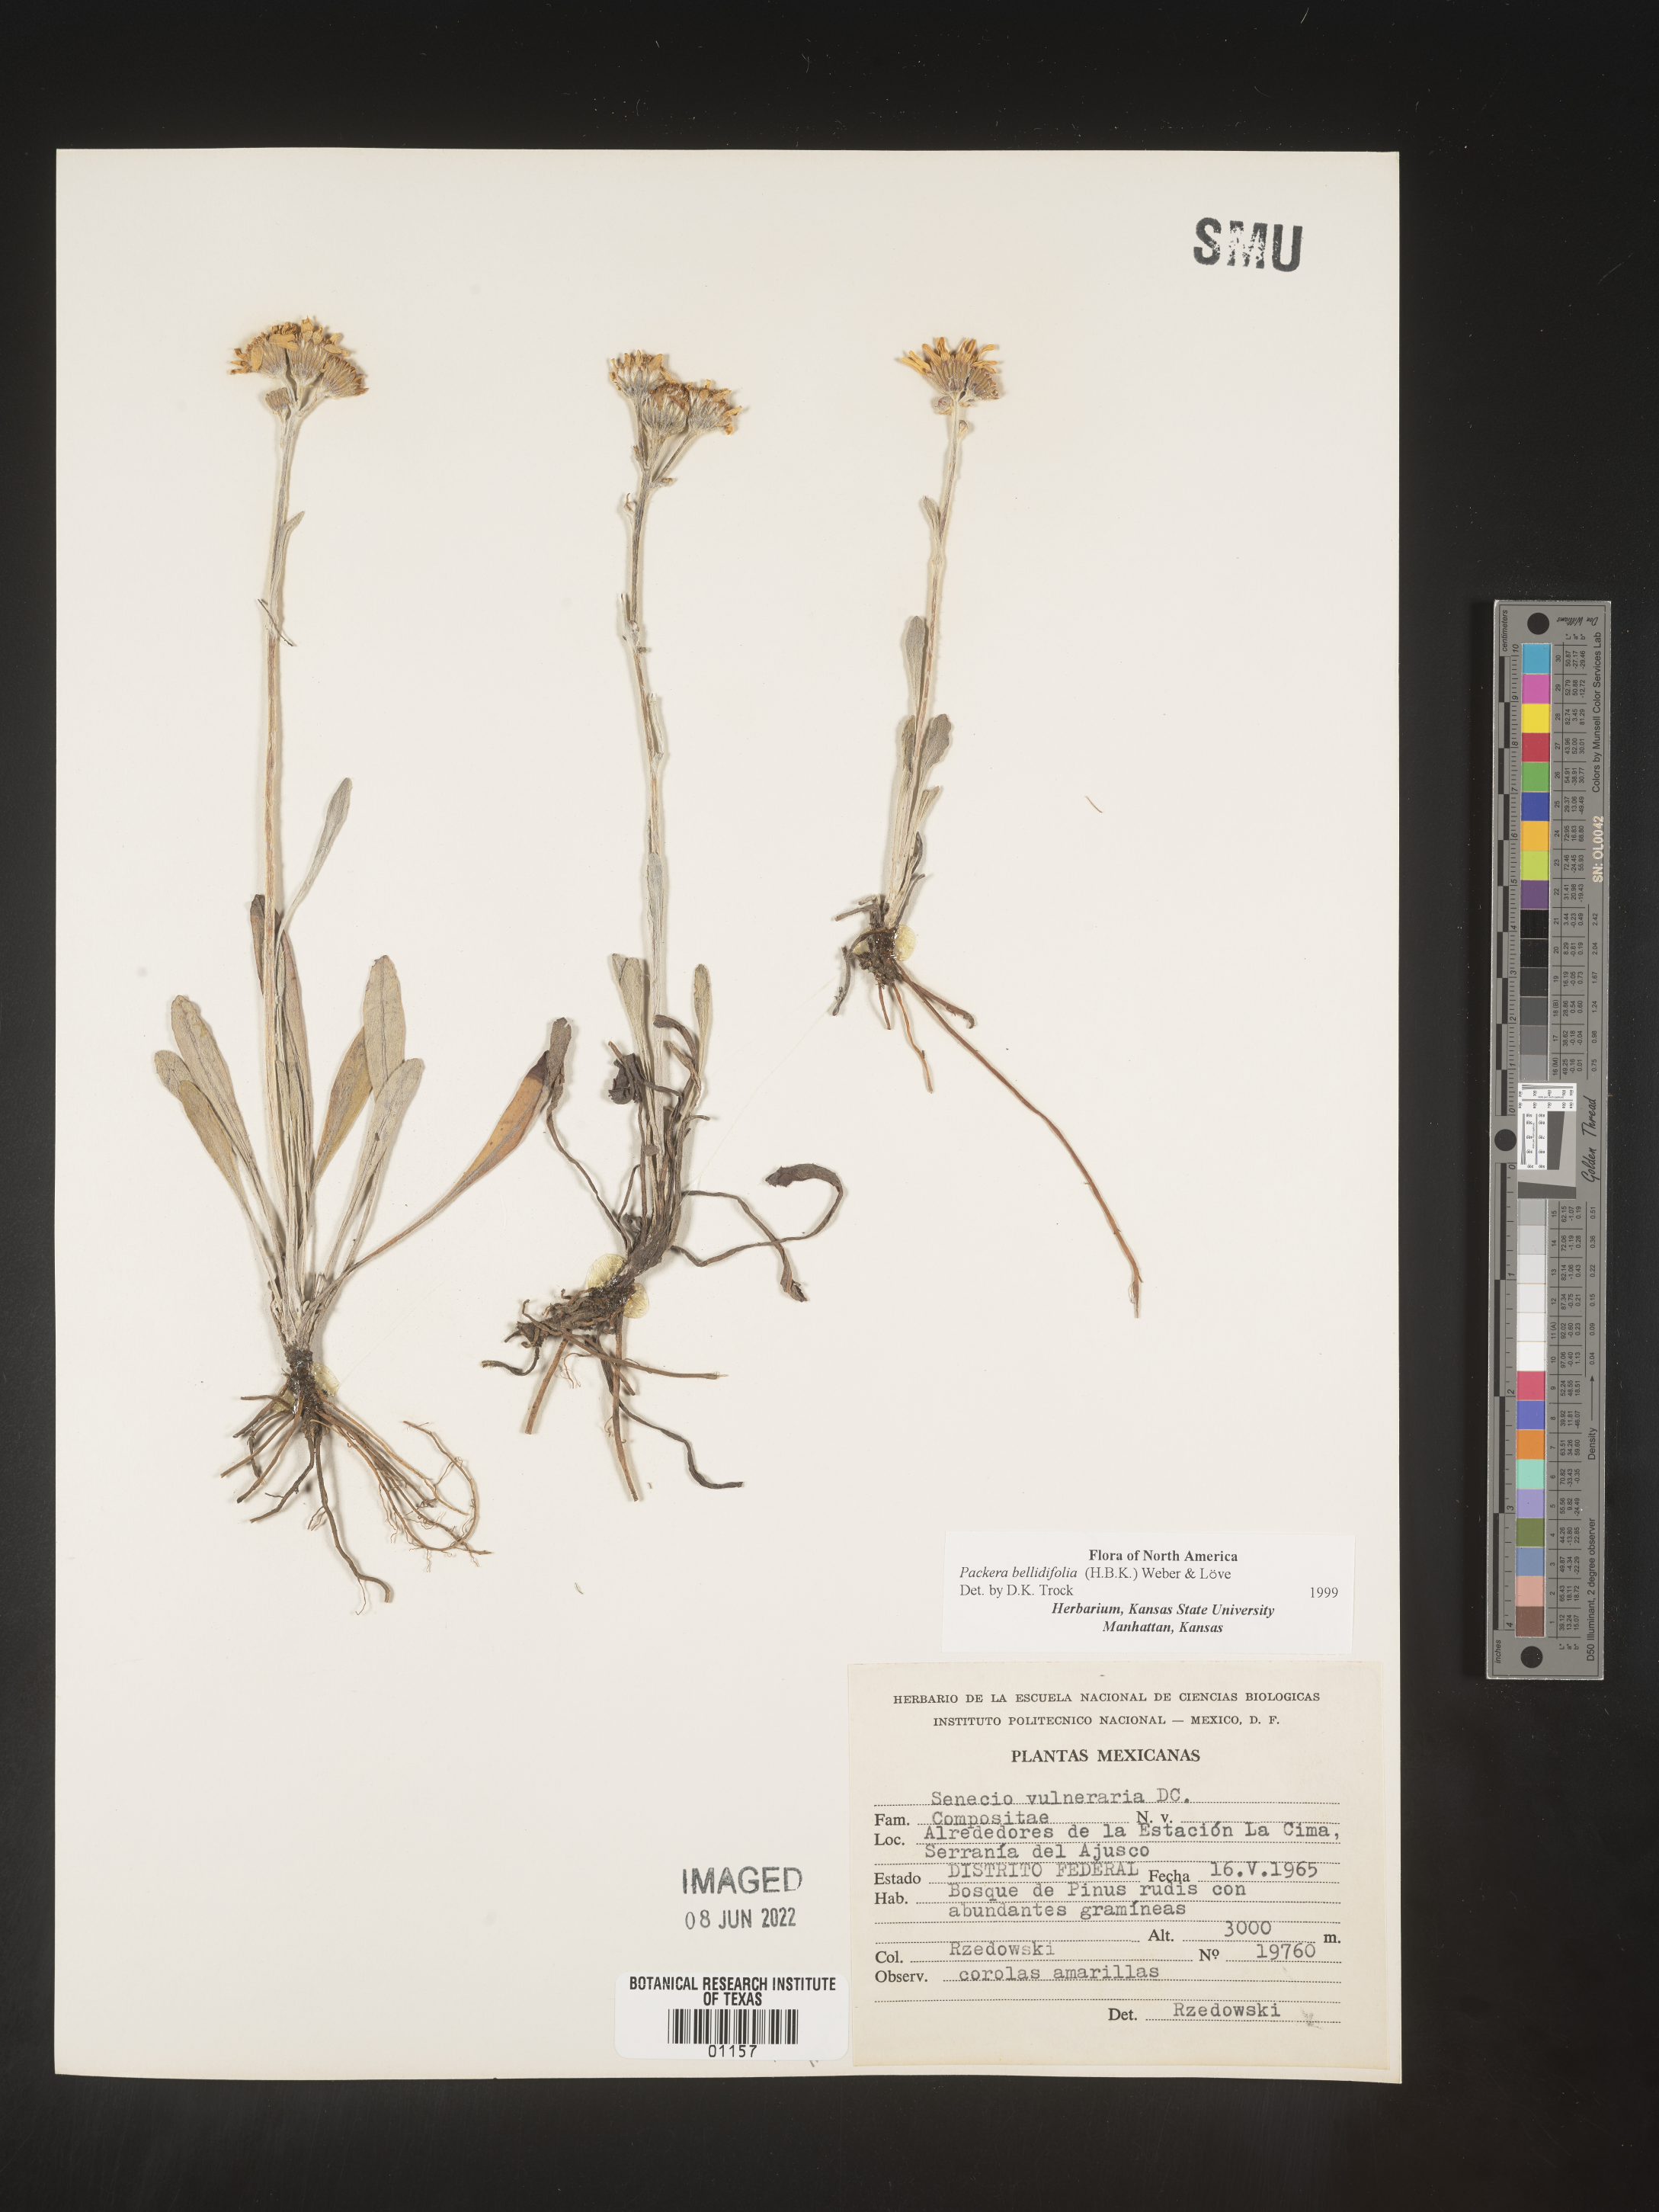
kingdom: Plantae
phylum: Tracheophyta
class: Magnoliopsida
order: Asterales
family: Asteraceae
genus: Packera
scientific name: Packera
